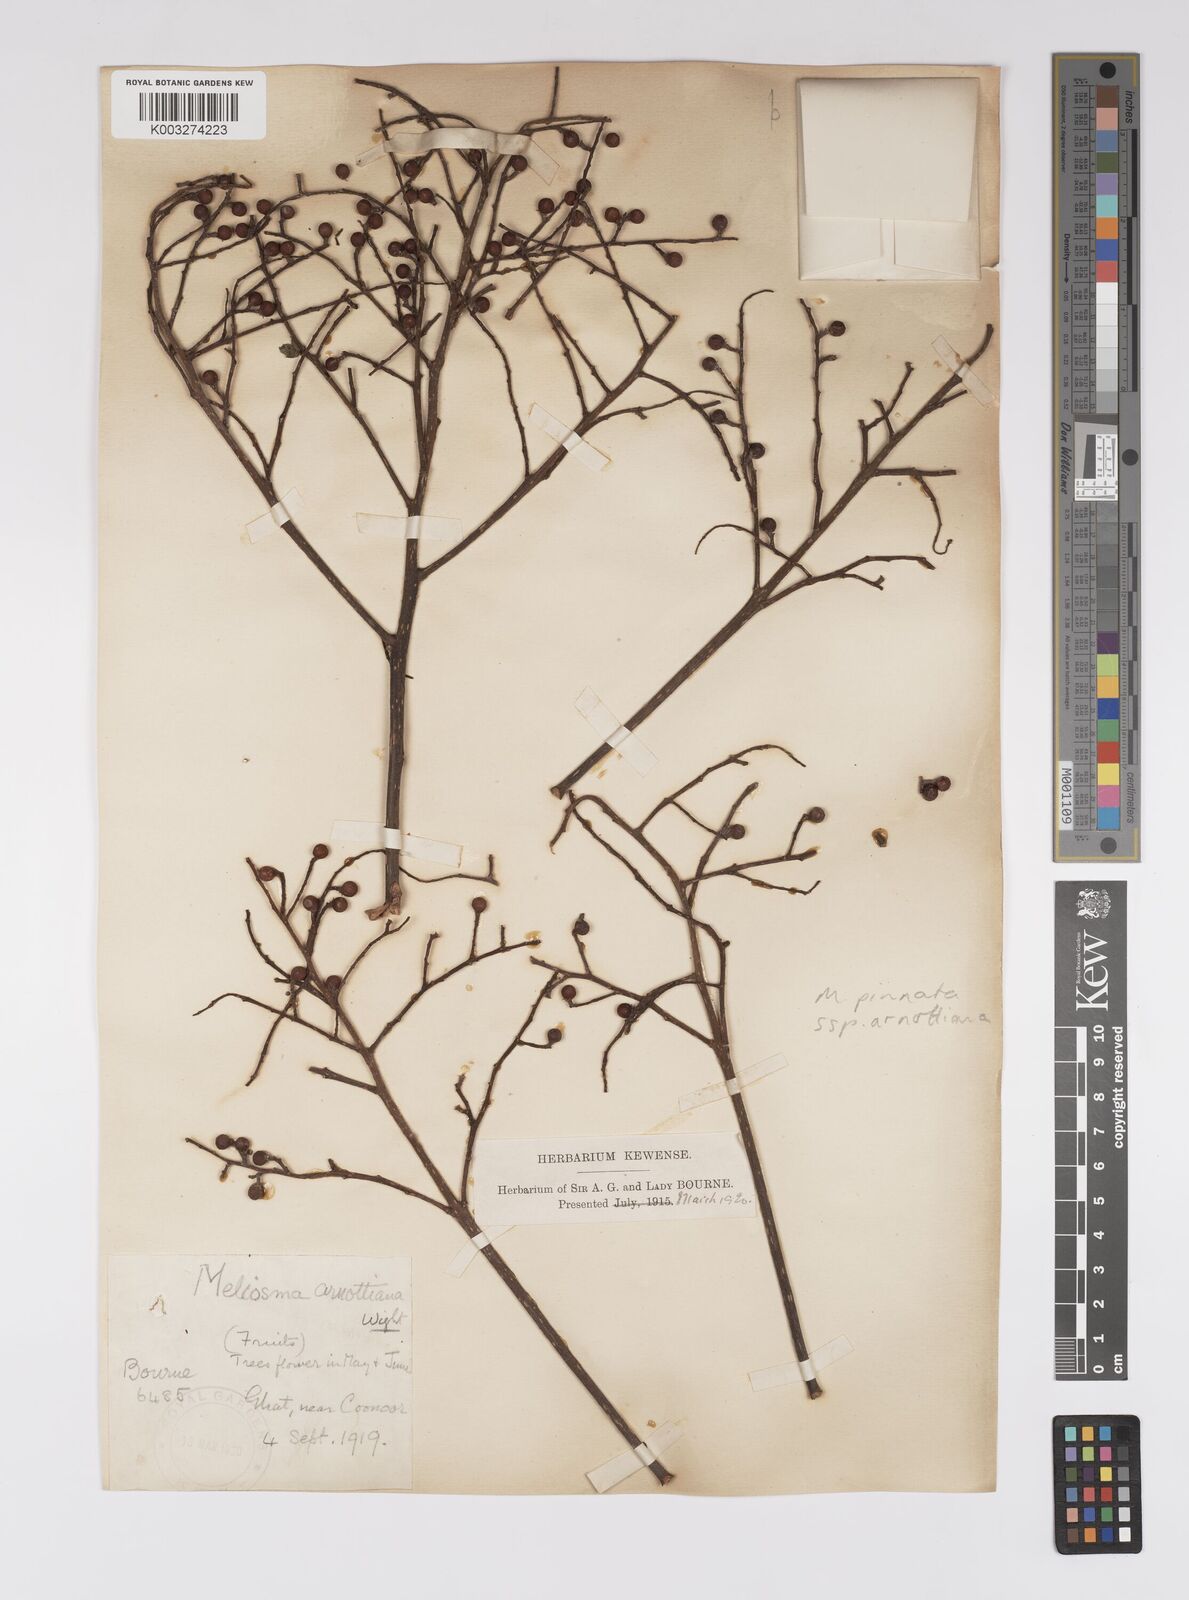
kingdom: Plantae
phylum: Tracheophyta
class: Magnoliopsida
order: Proteales
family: Sabiaceae
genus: Meliosma
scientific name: Meliosma rhoifolia
